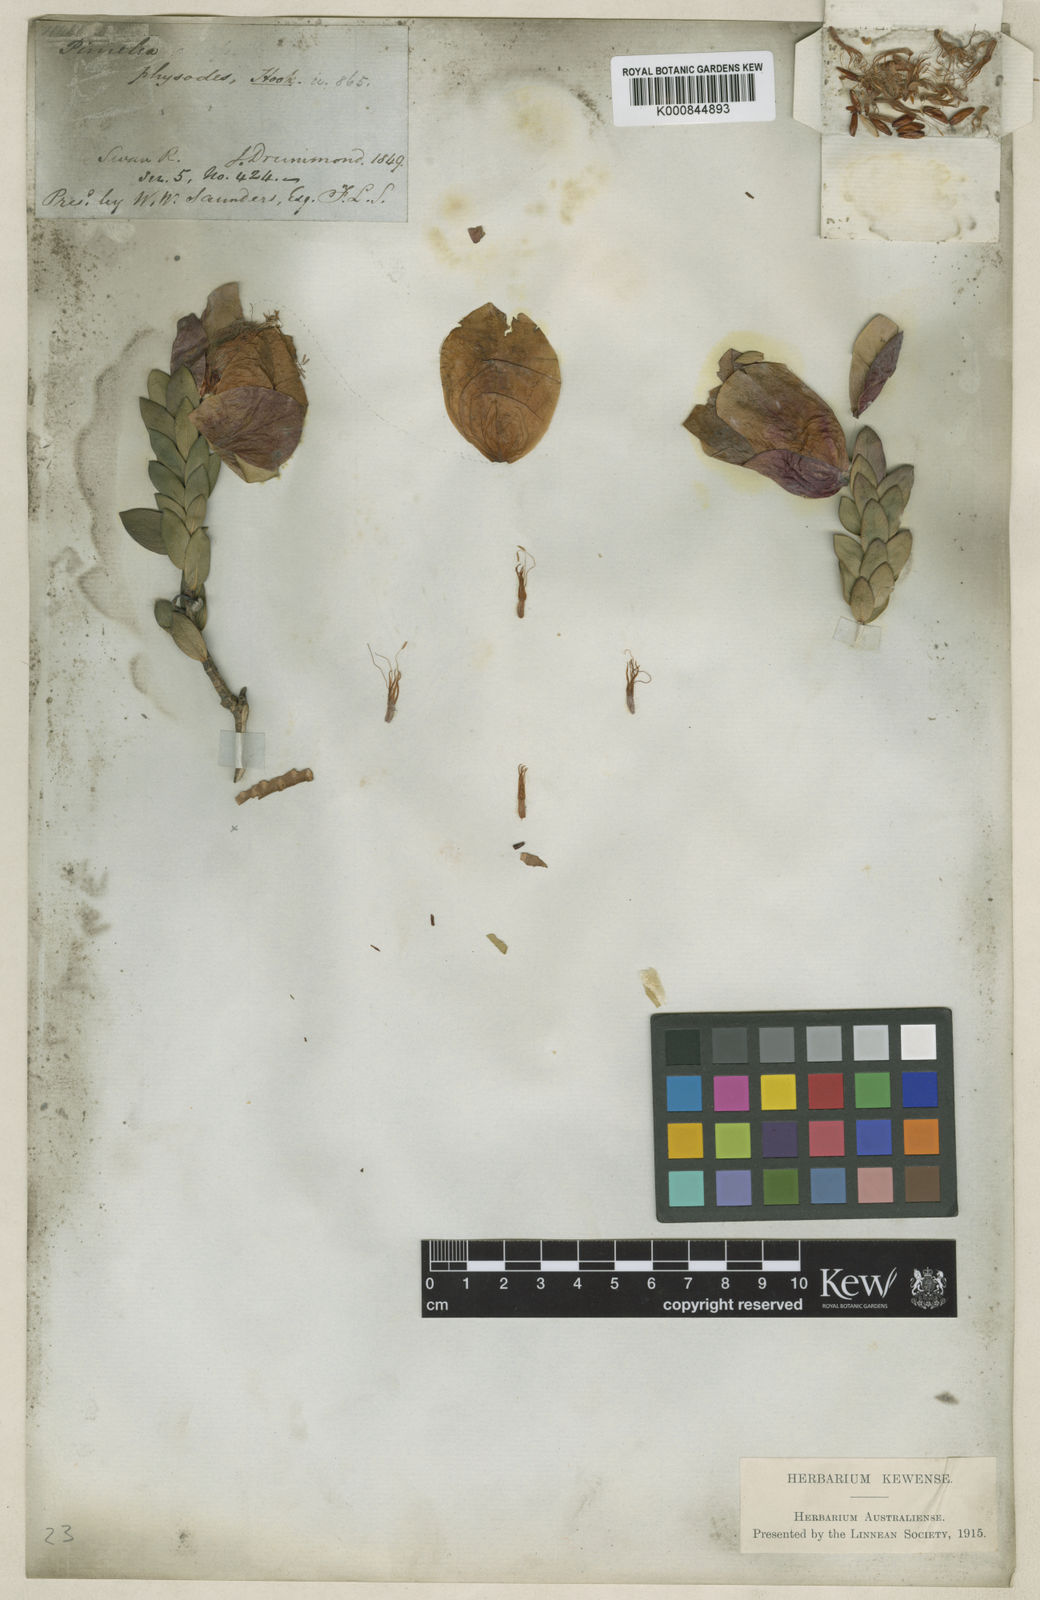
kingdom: Plantae
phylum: Tracheophyta
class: Magnoliopsida
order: Malvales
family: Thymelaeaceae
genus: Pimelea
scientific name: Pimelea physodes
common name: Qualup-bell
